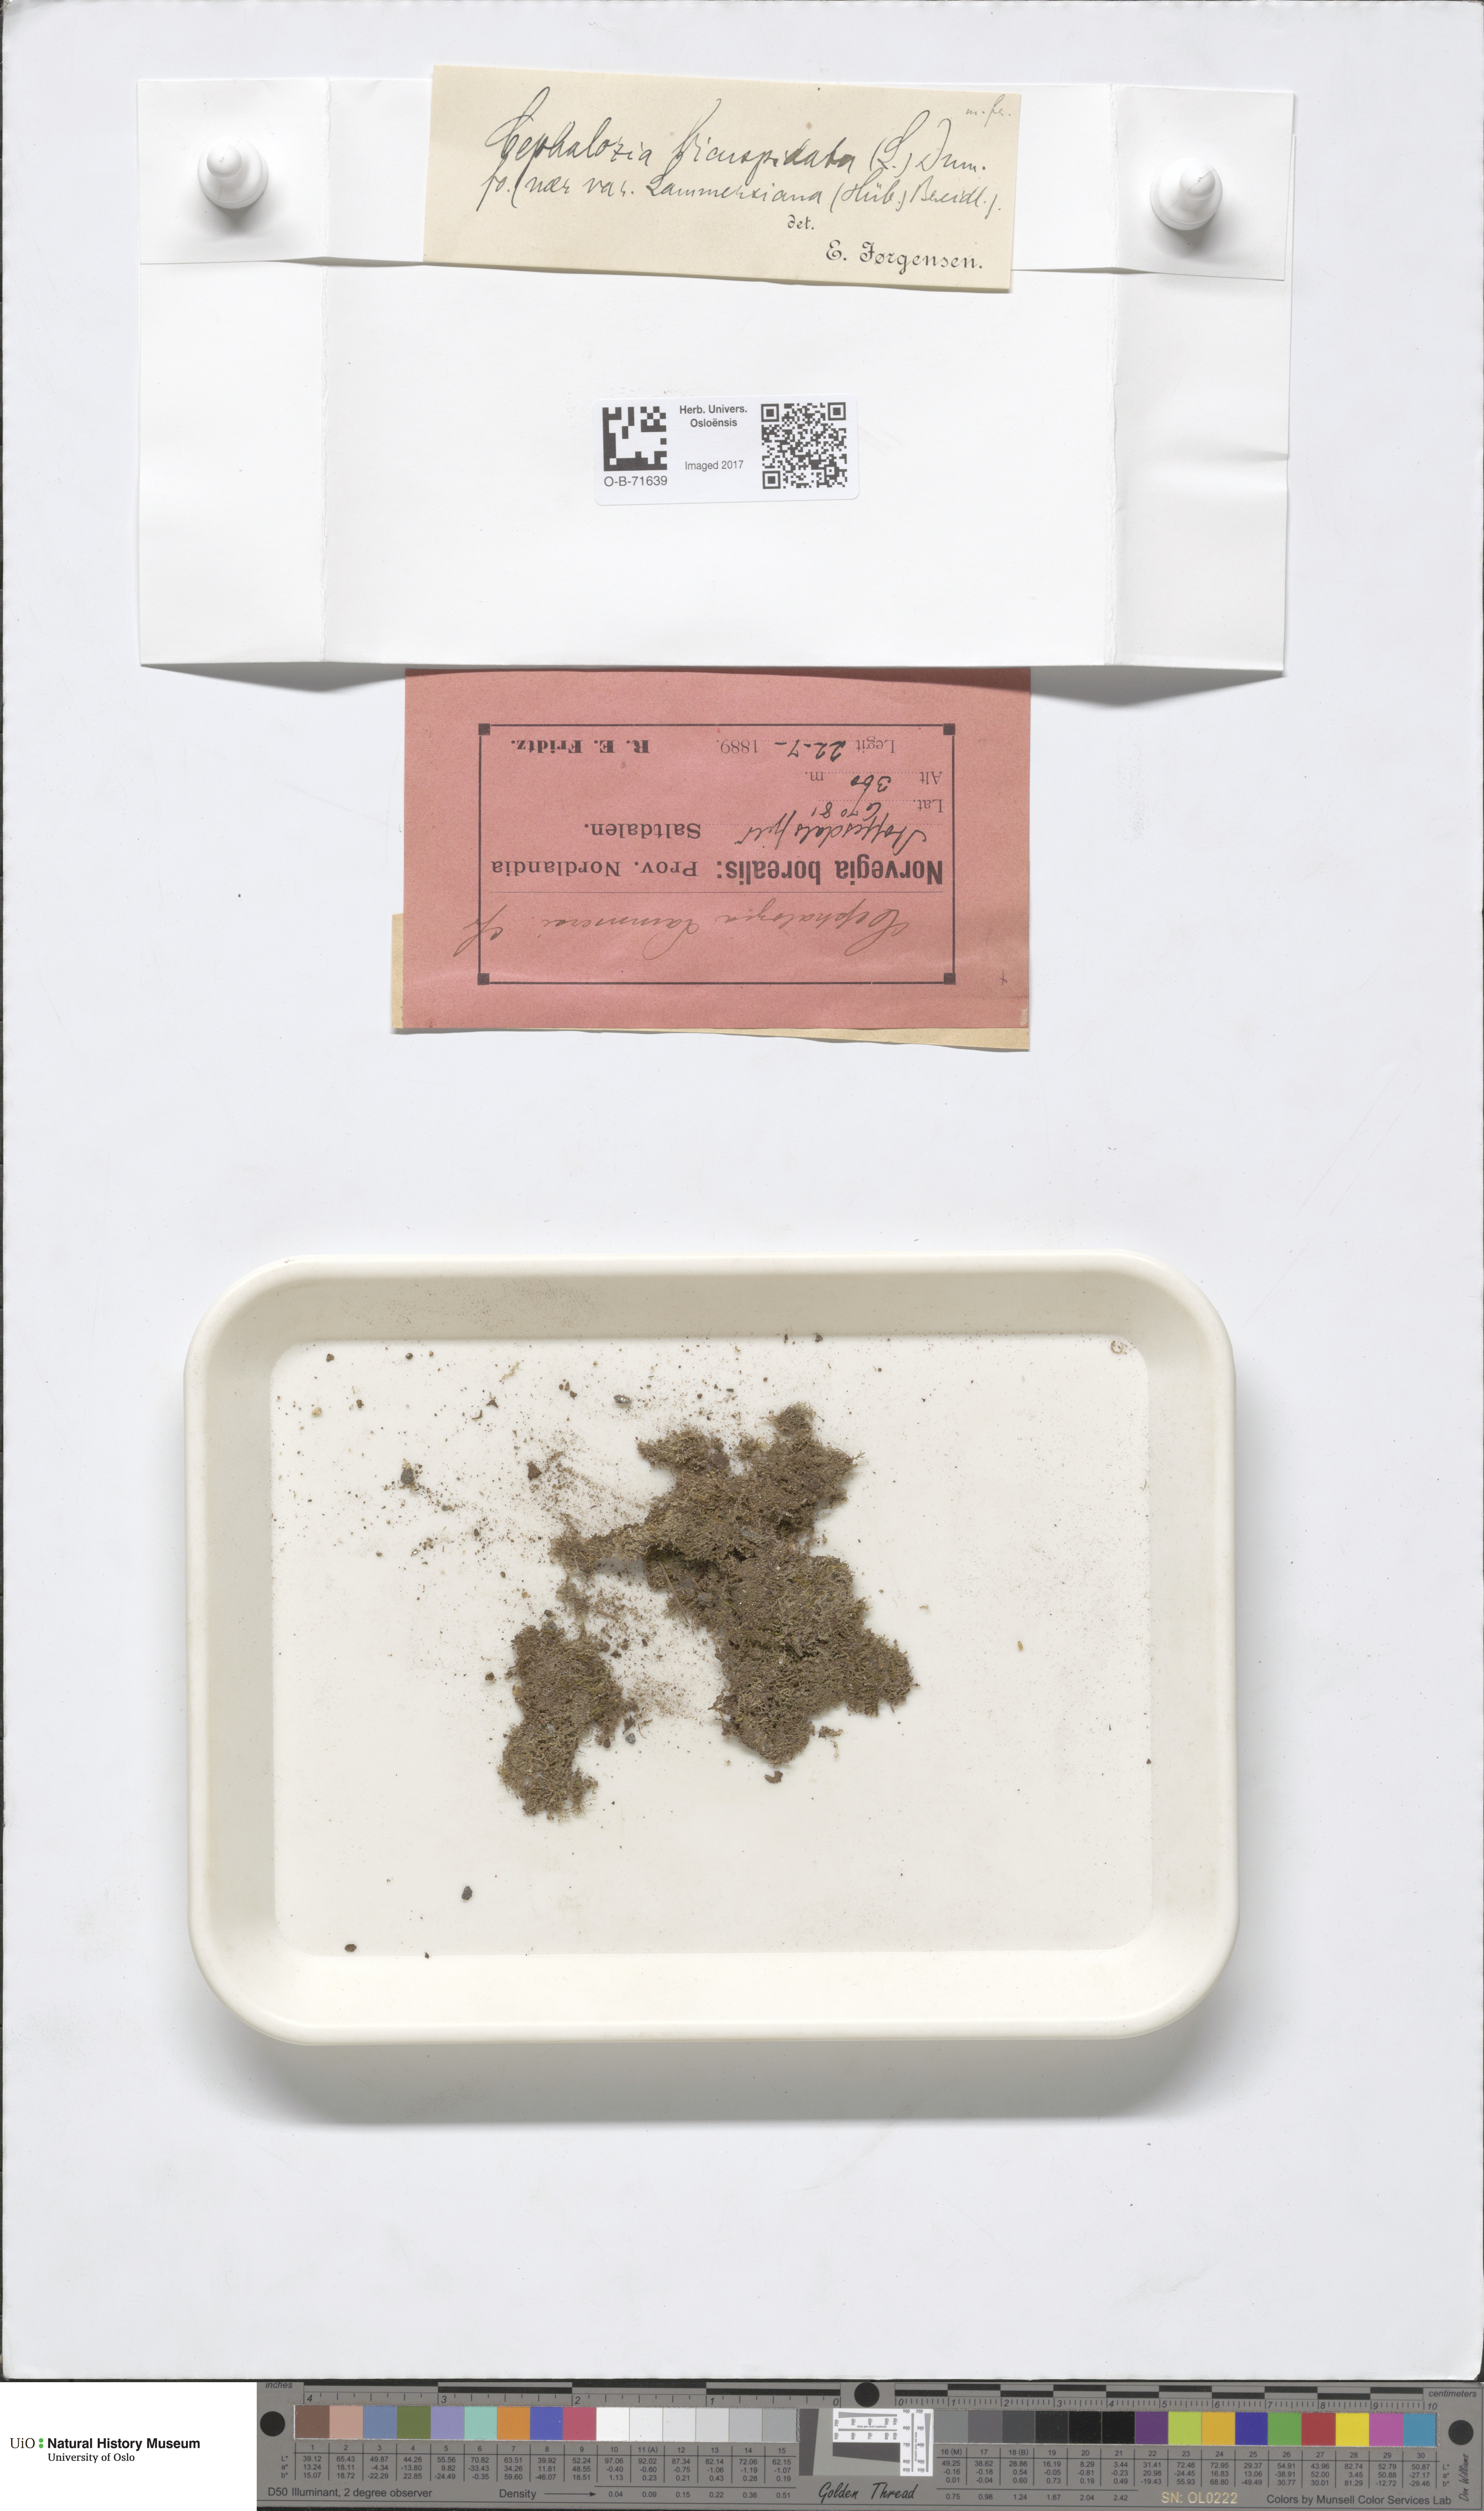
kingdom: Plantae
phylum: Marchantiophyta
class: Jungermanniopsida
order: Jungermanniales
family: Cephaloziaceae
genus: Cephalozia
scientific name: Cephalozia bicuspidata
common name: Two-horned pincerwort
